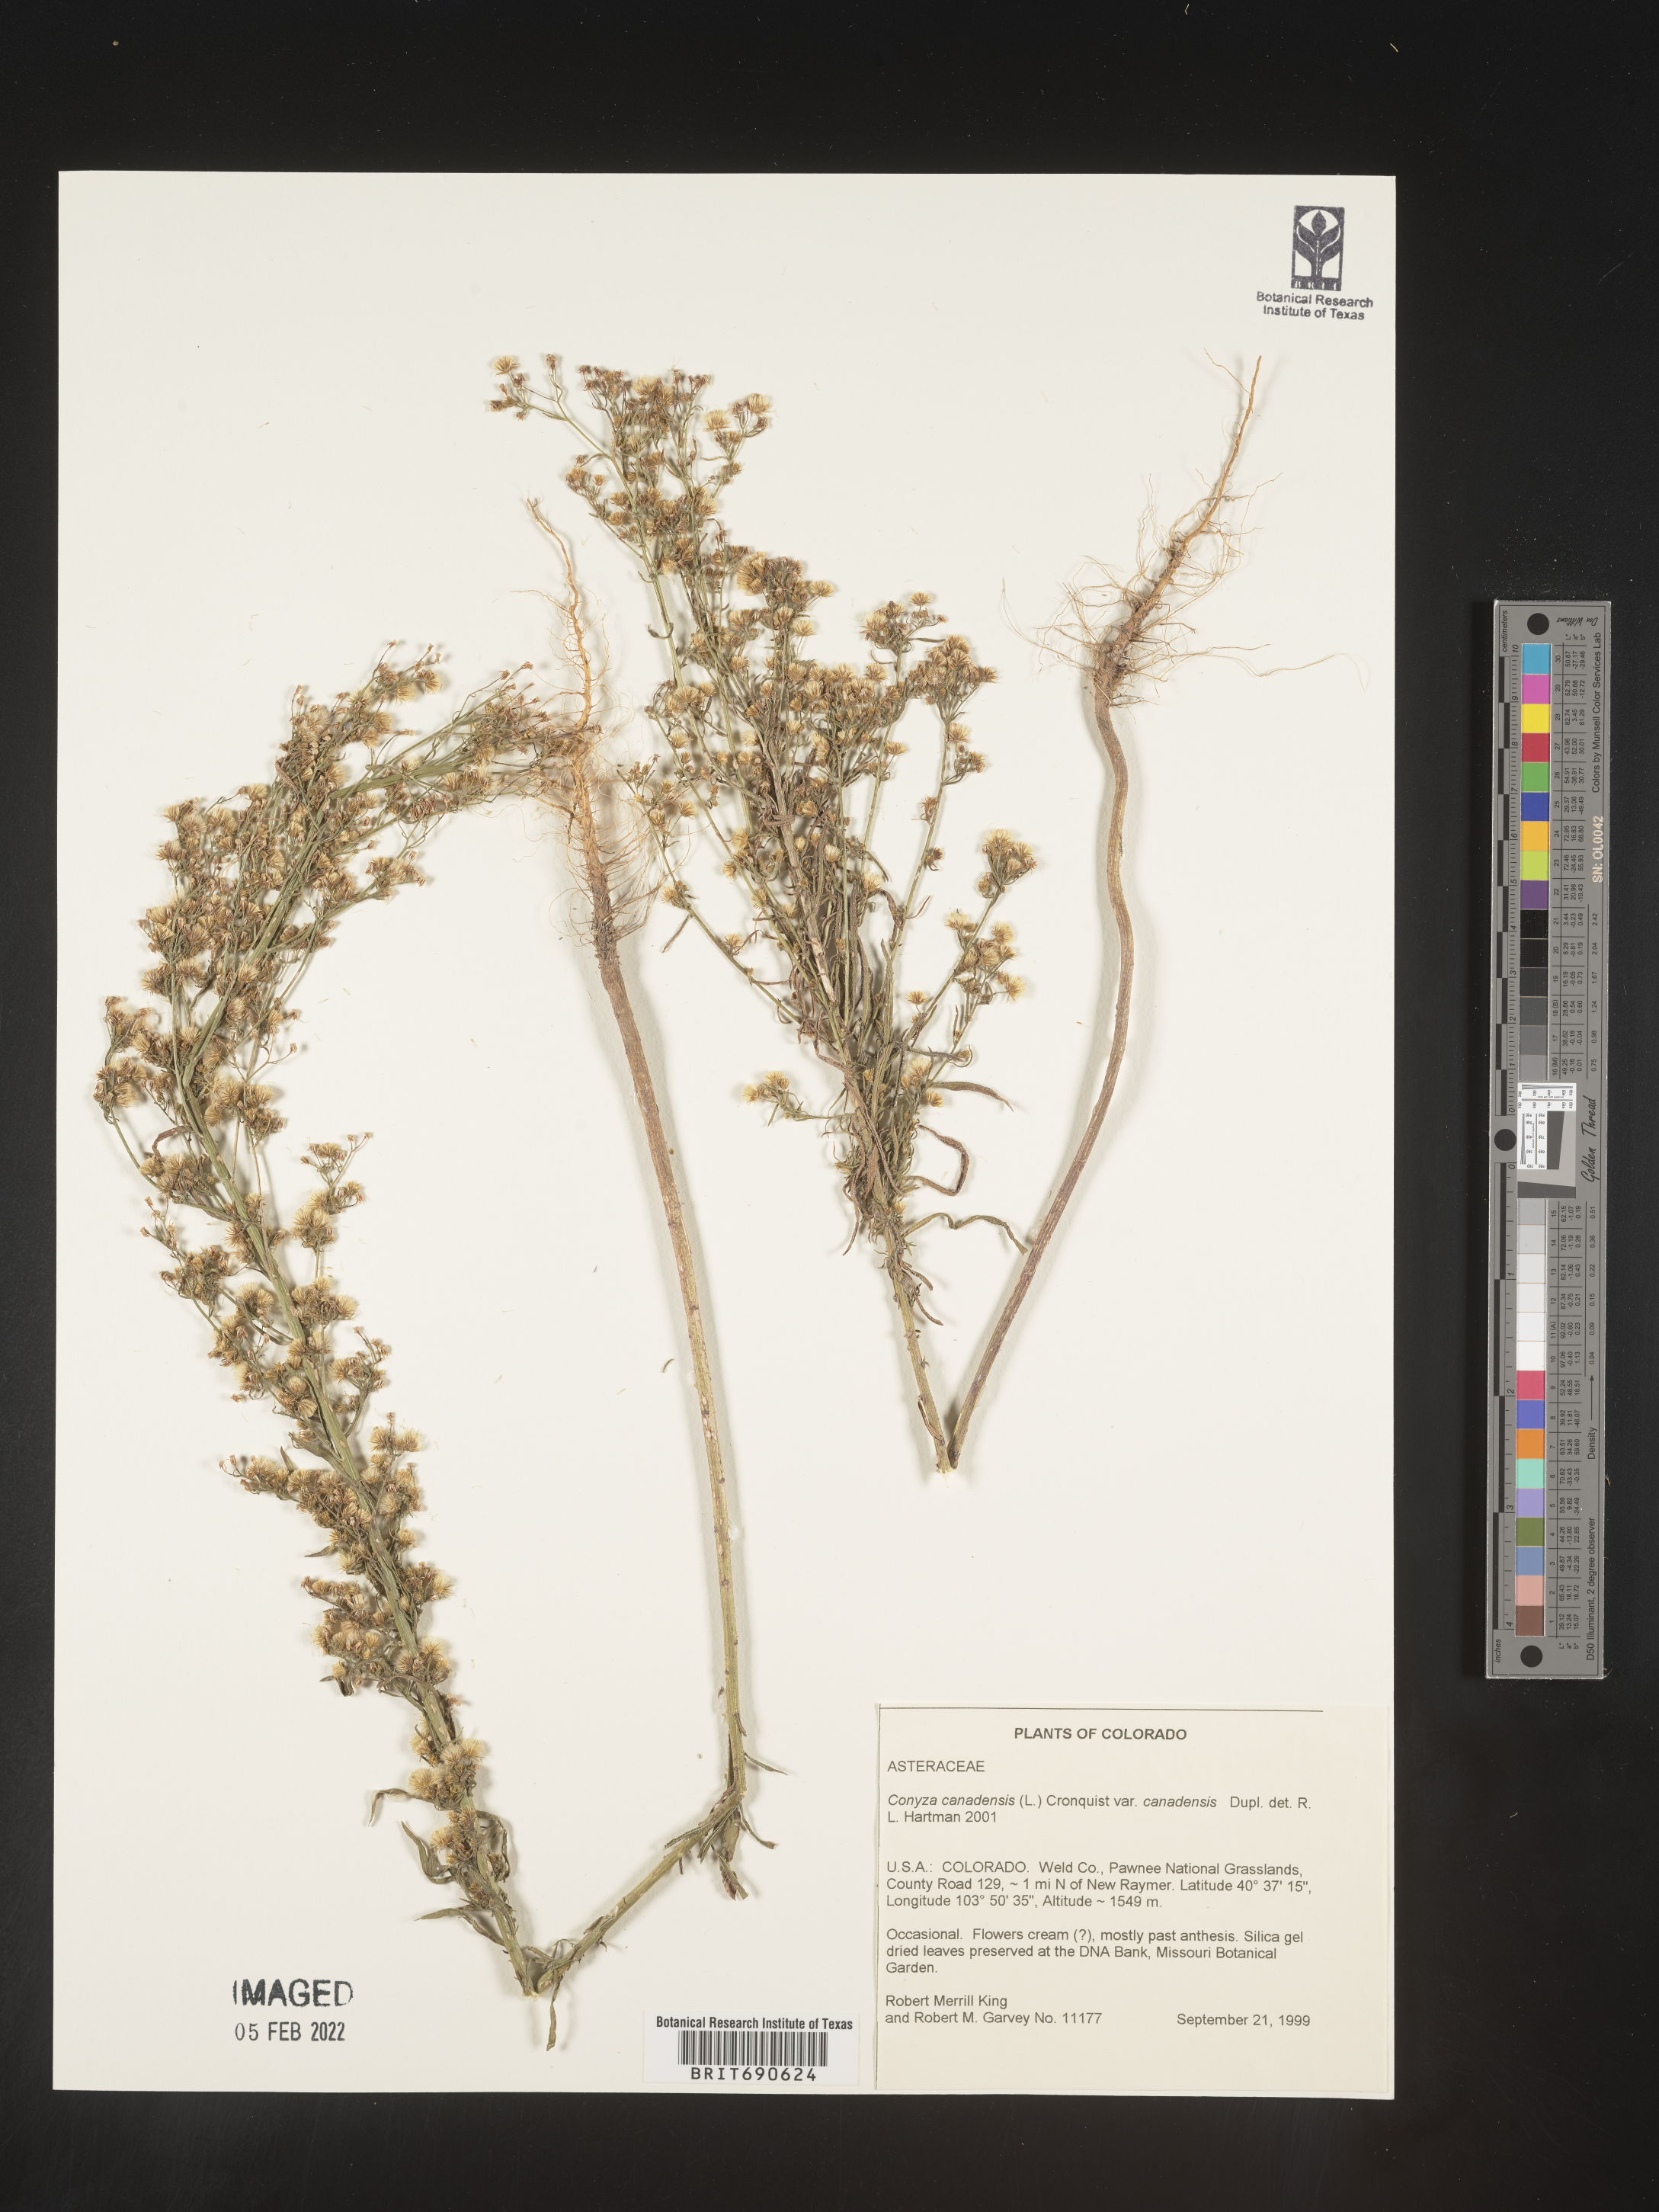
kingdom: Plantae
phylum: Tracheophyta
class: Magnoliopsida
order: Asterales
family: Asteraceae
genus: Erigeron
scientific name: Erigeron canadensis
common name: Canadian fleabane
